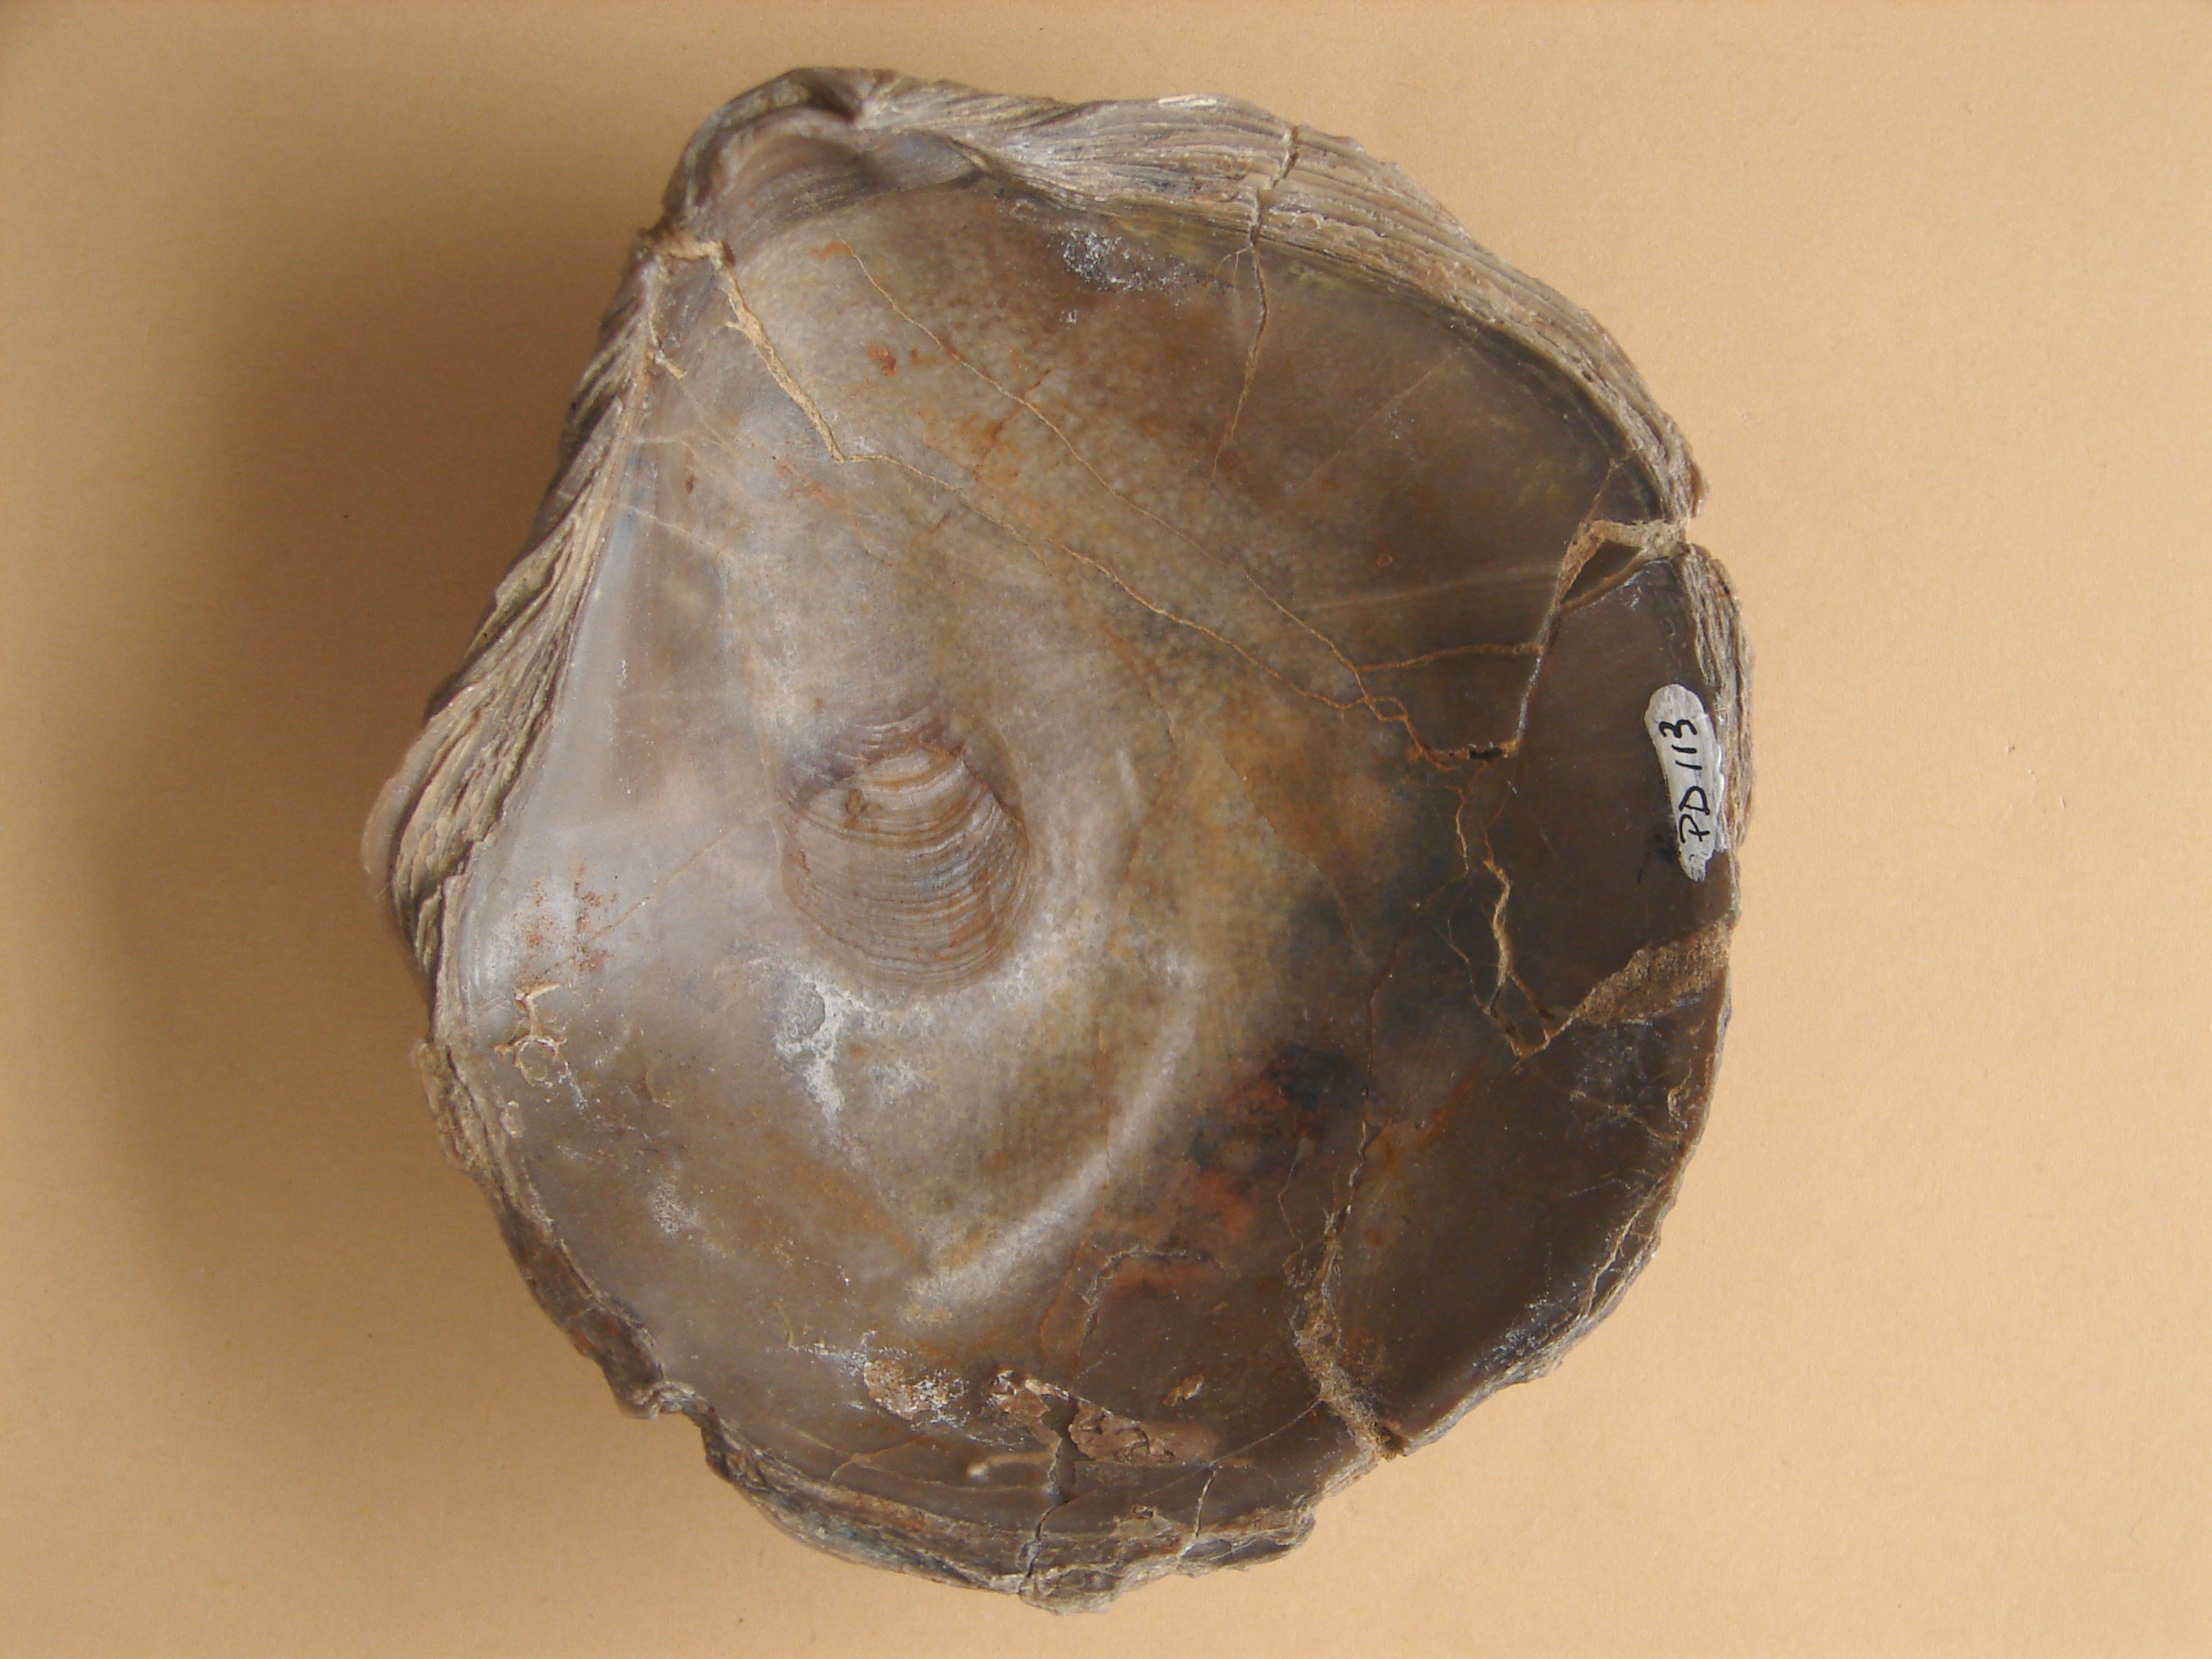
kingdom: Animalia
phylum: Mollusca
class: Bivalvia
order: Ostreida
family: Gryphaeidae
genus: Gryphaea
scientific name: Gryphaea
